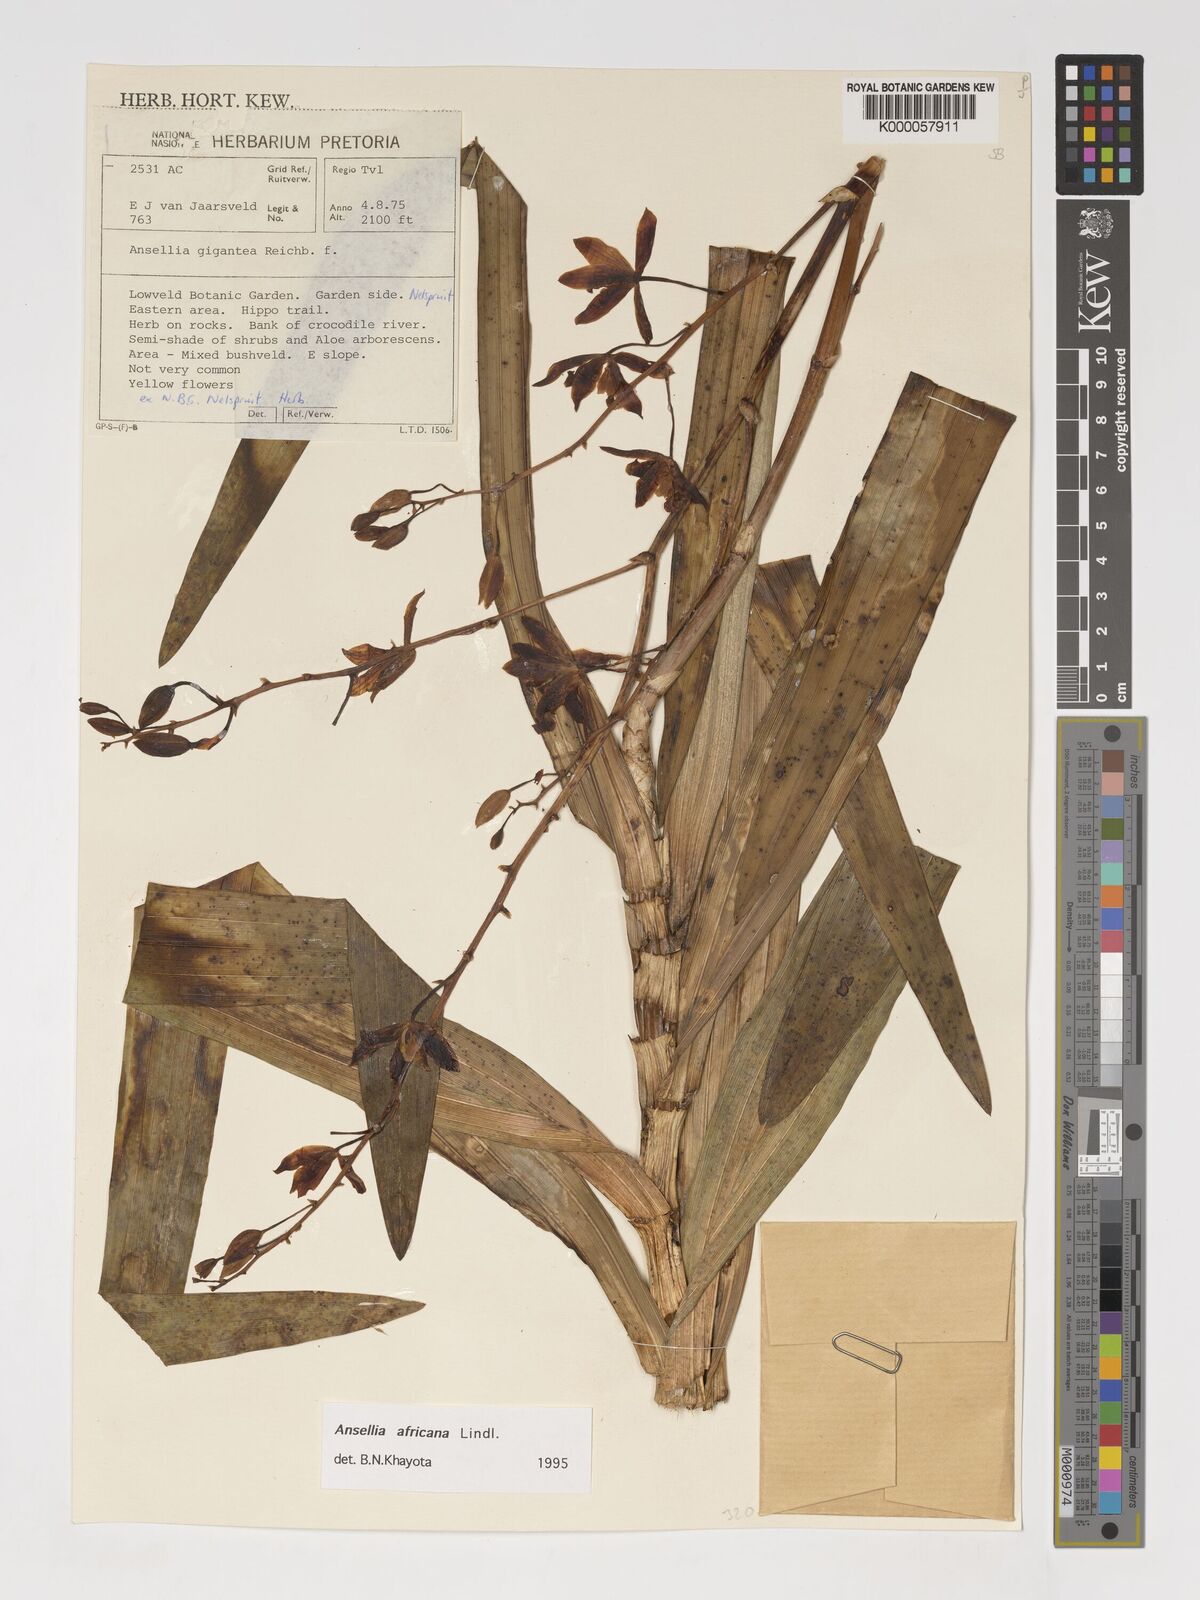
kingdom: Plantae
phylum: Tracheophyta
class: Liliopsida
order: Asparagales
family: Orchidaceae
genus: Ansellia
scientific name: Ansellia africana
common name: African ansellia
